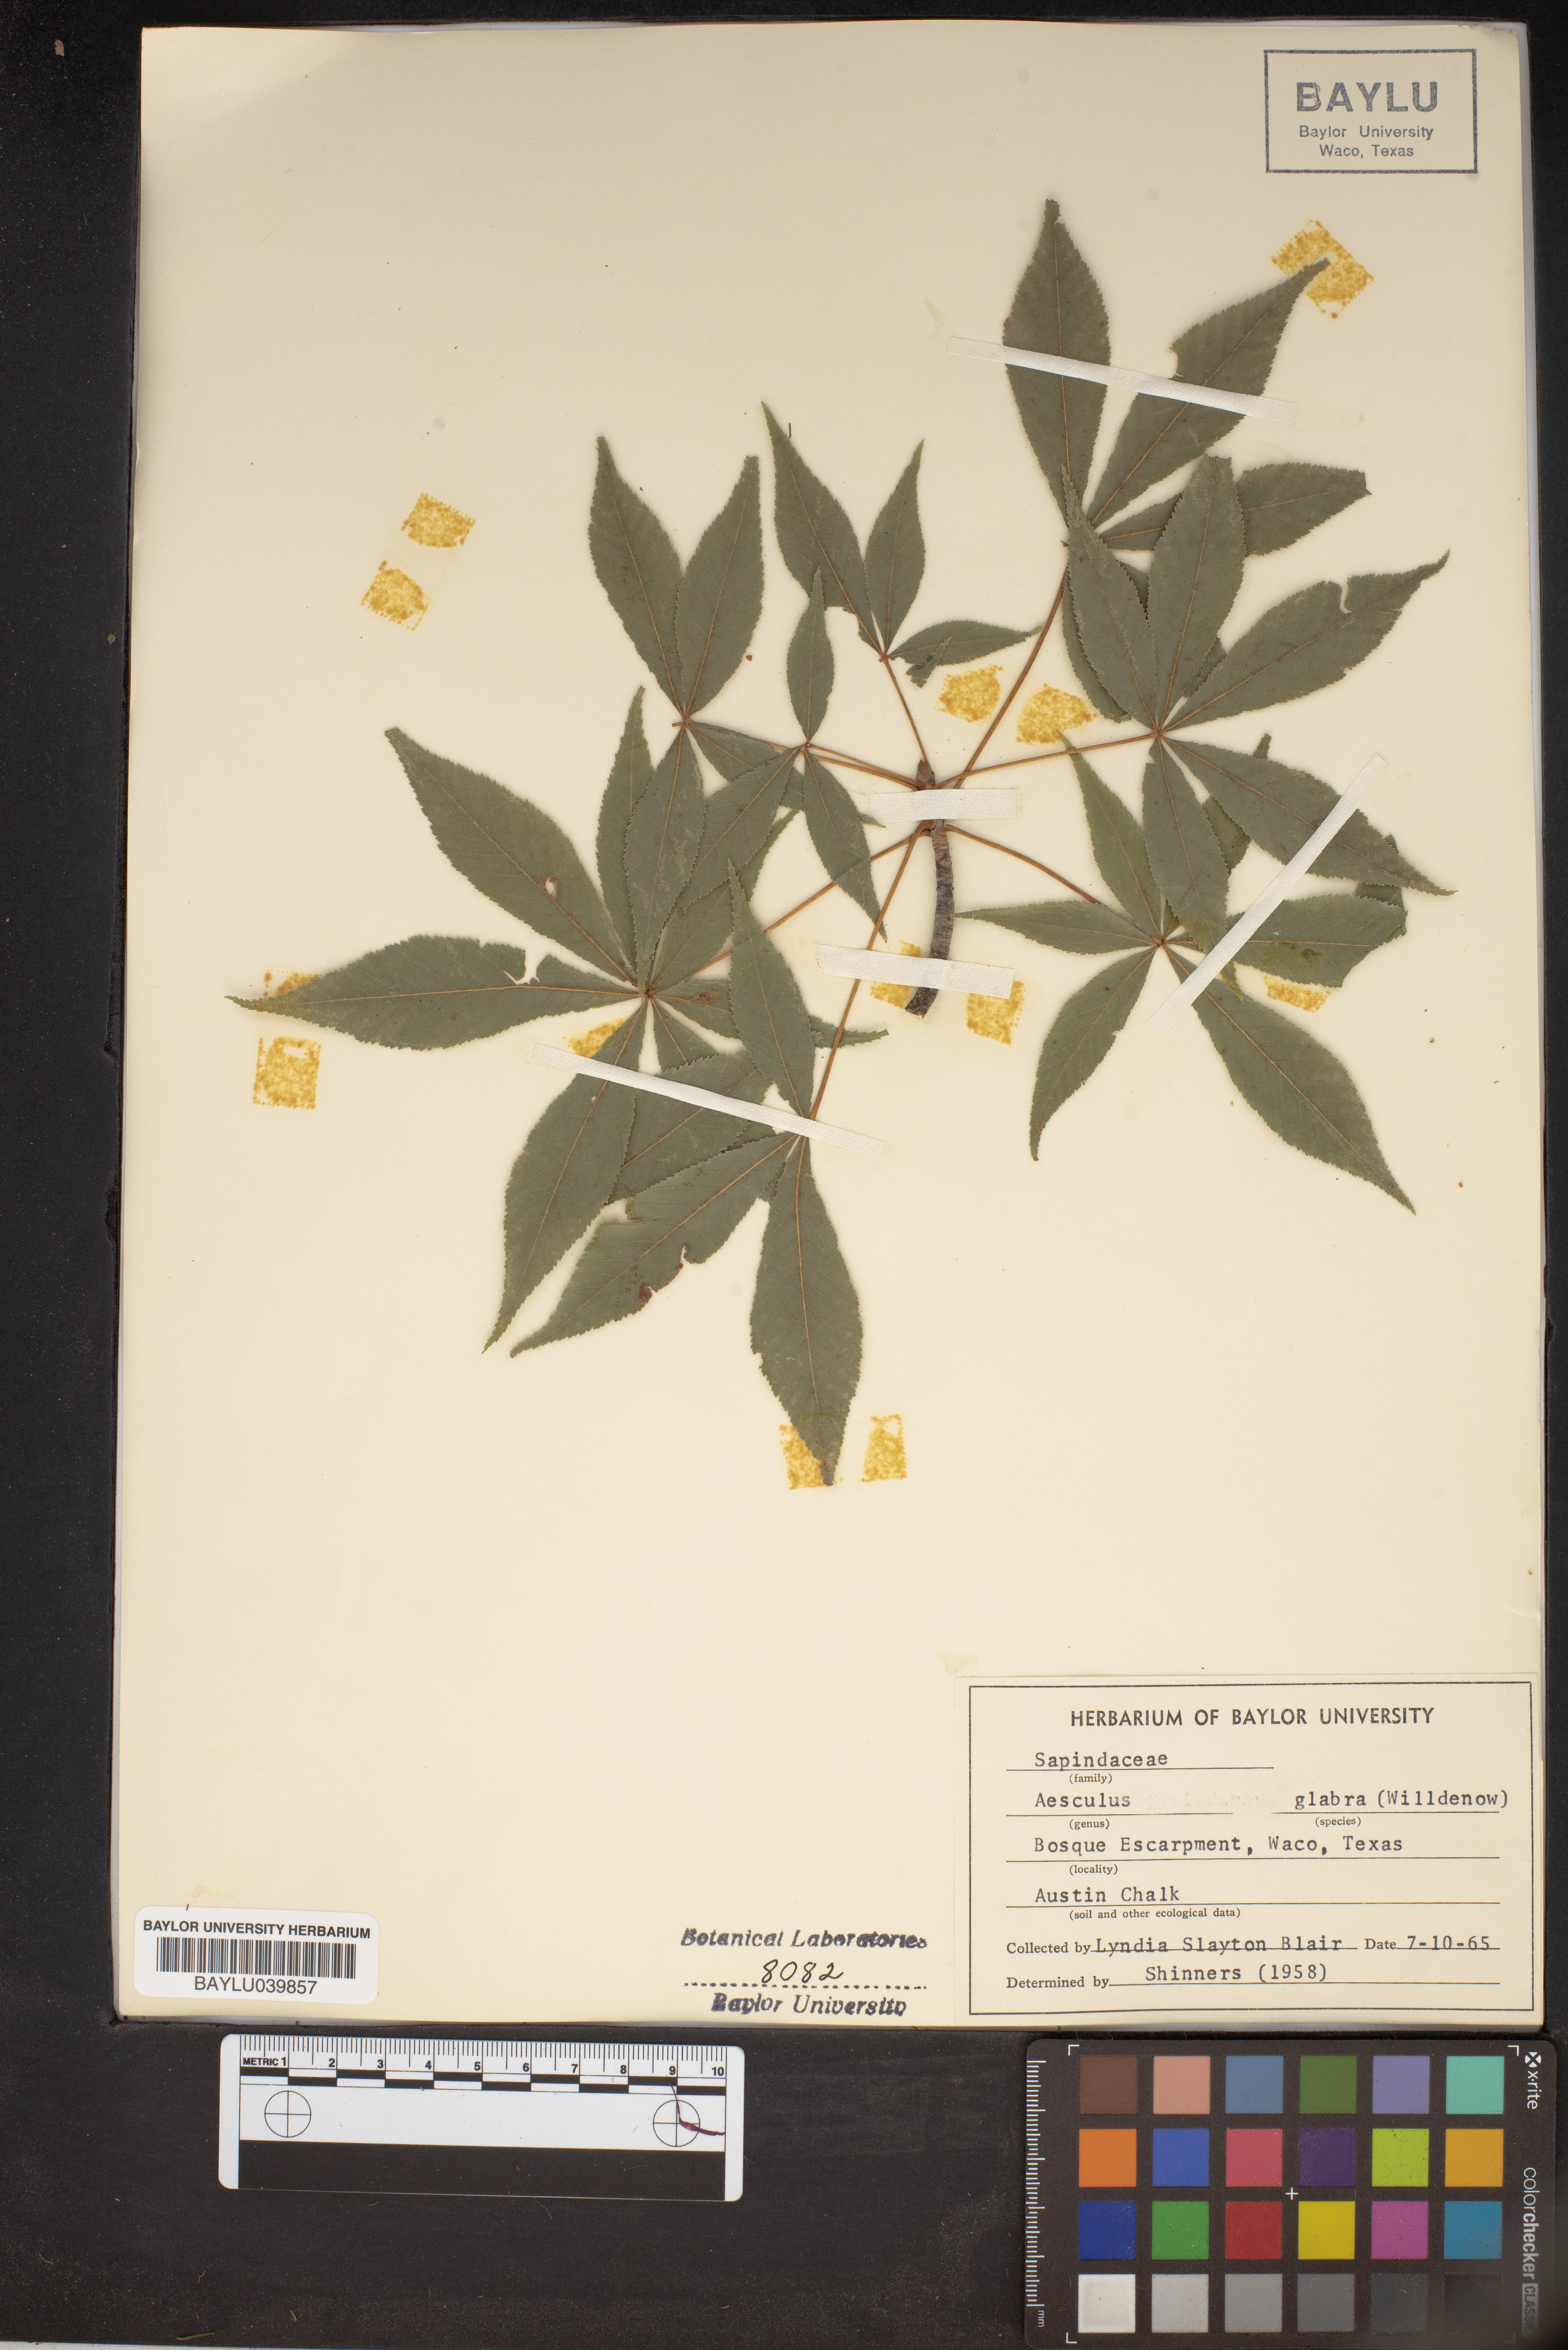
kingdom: Plantae
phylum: Tracheophyta
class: Magnoliopsida
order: Sapindales
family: Sapindaceae
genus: Aesculus
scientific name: Aesculus glabra
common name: Ohio buckeye
